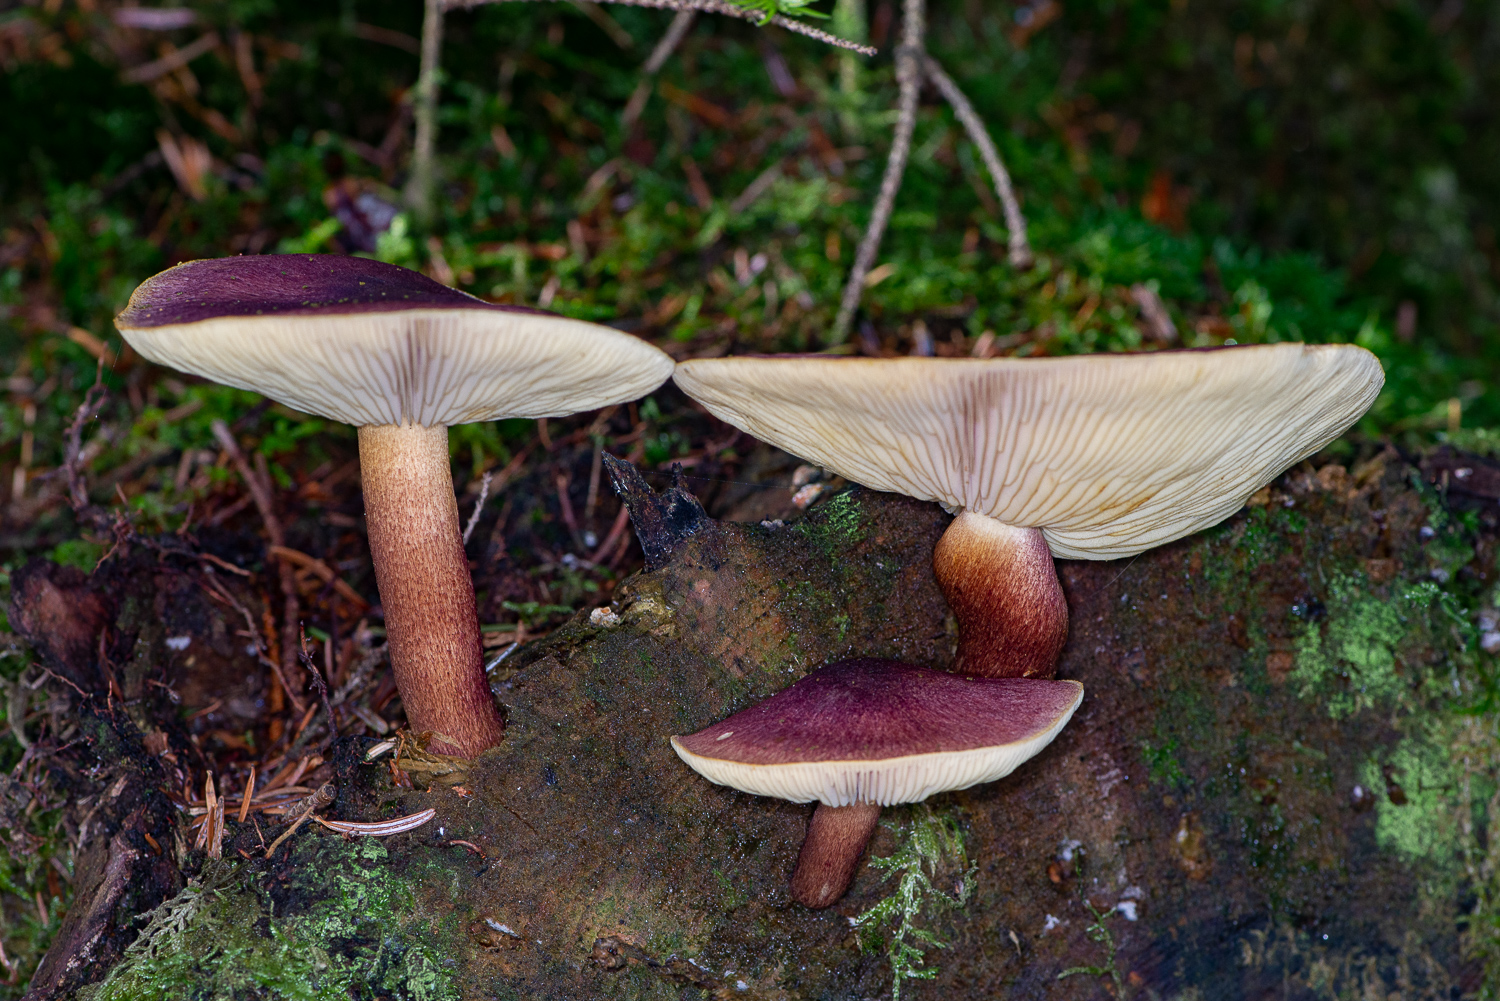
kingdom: Fungi
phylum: Basidiomycota
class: Agaricomycetes
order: Agaricales
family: Tricholomataceae
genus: Tricholomopsis
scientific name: Tricholomopsis rutilans
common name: purpur-væbnerhat
